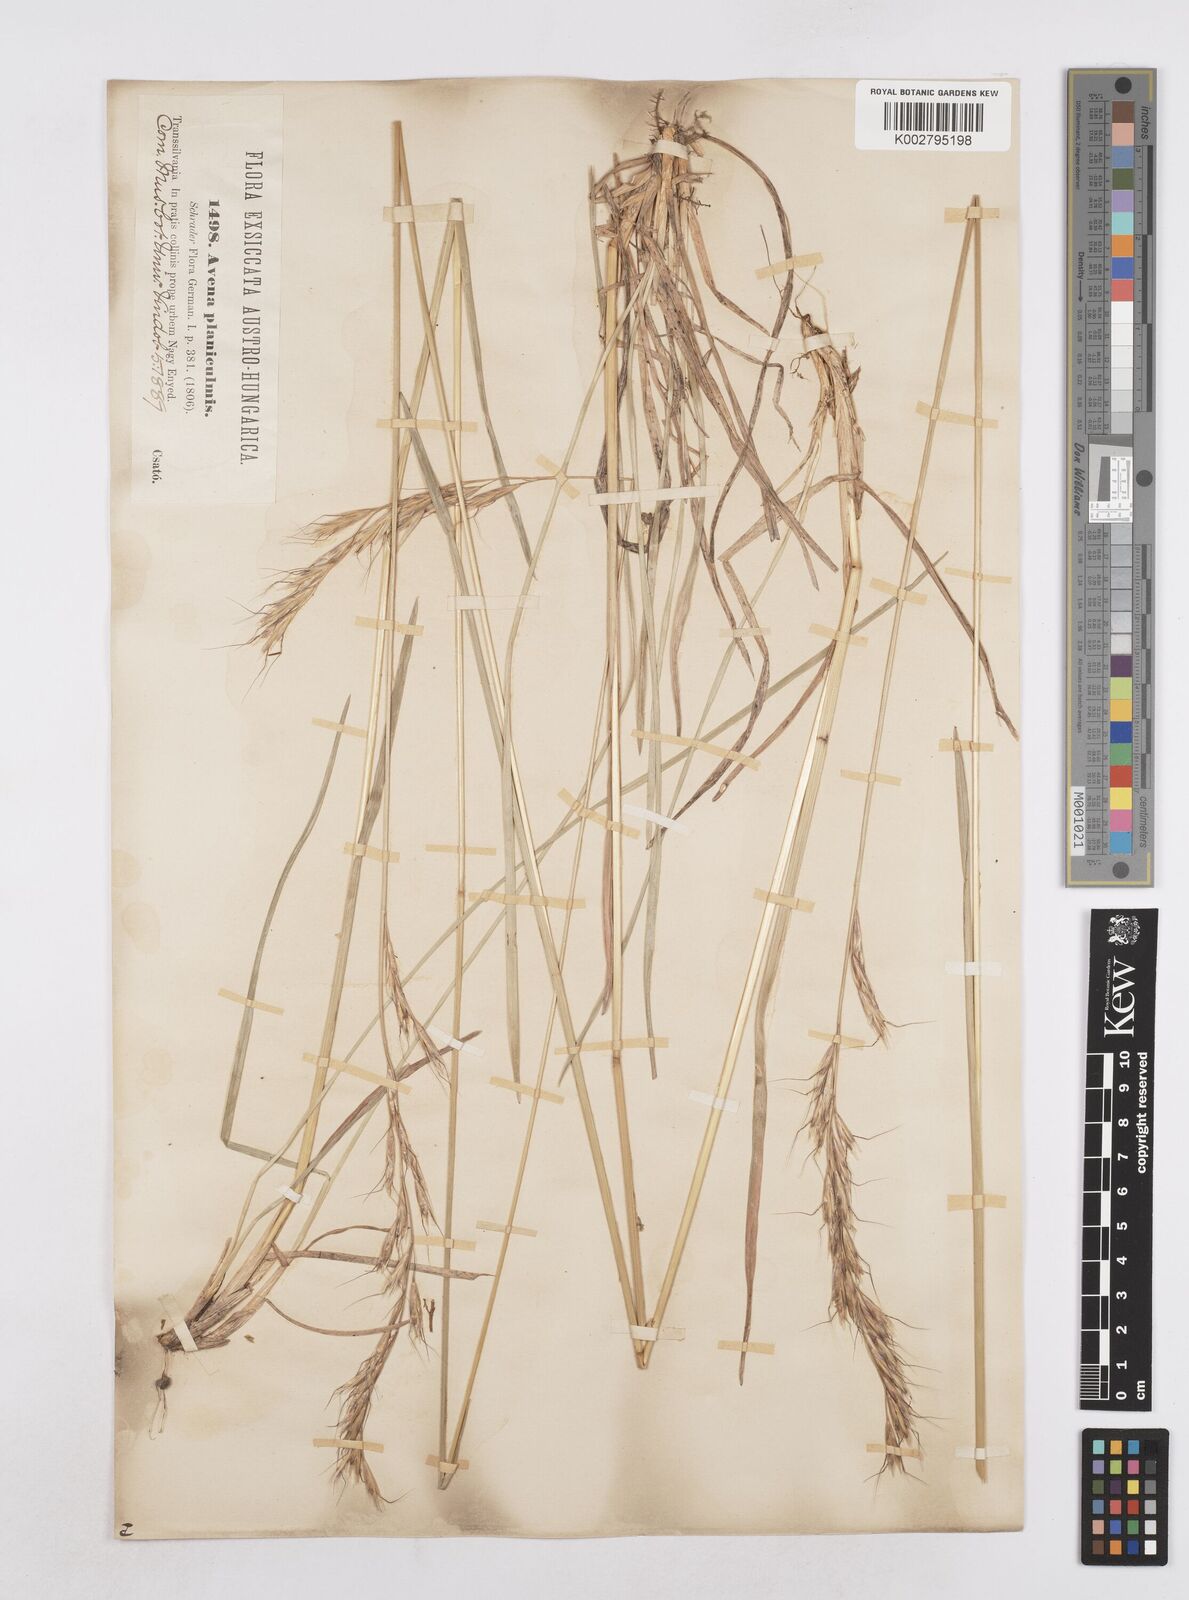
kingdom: Plantae
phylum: Tracheophyta
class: Liliopsida
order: Poales
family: Poaceae
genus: Helictochloa
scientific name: Helictochloa planiculmis
